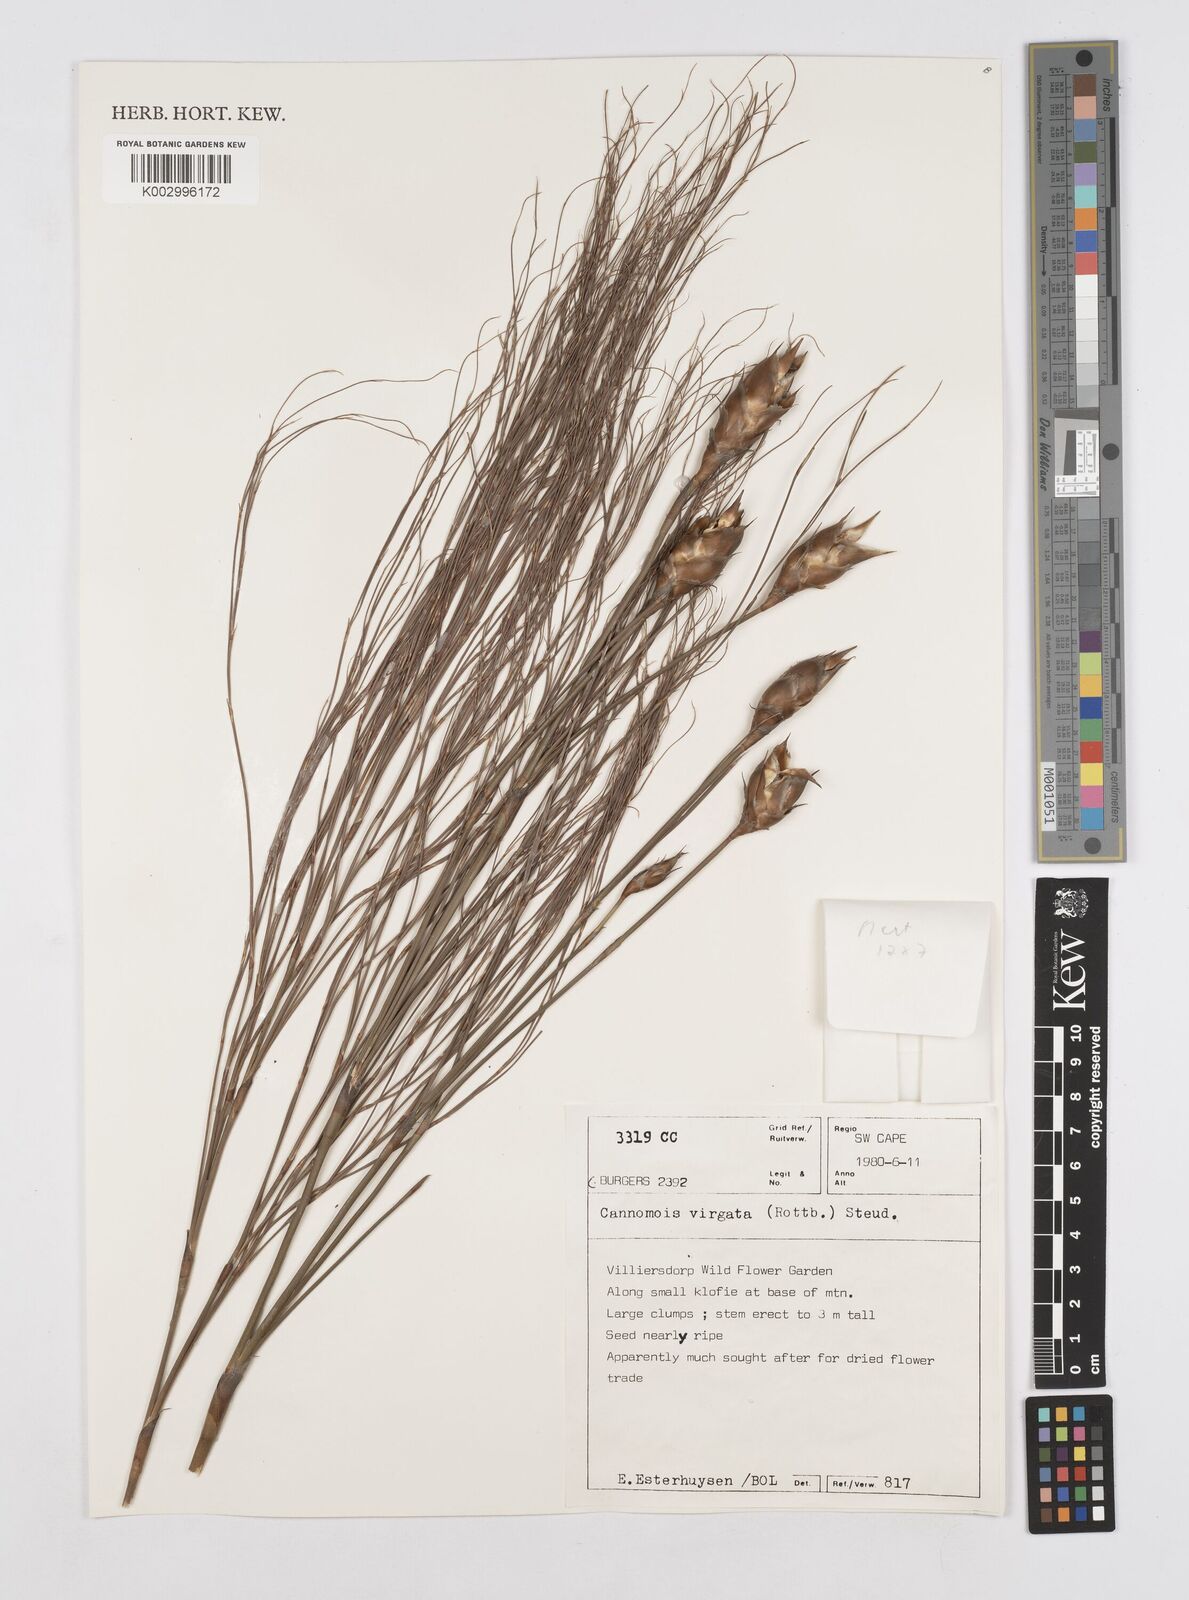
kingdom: Plantae
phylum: Tracheophyta
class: Liliopsida
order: Poales
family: Restionaceae
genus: Cannomois
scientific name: Cannomois virgata
